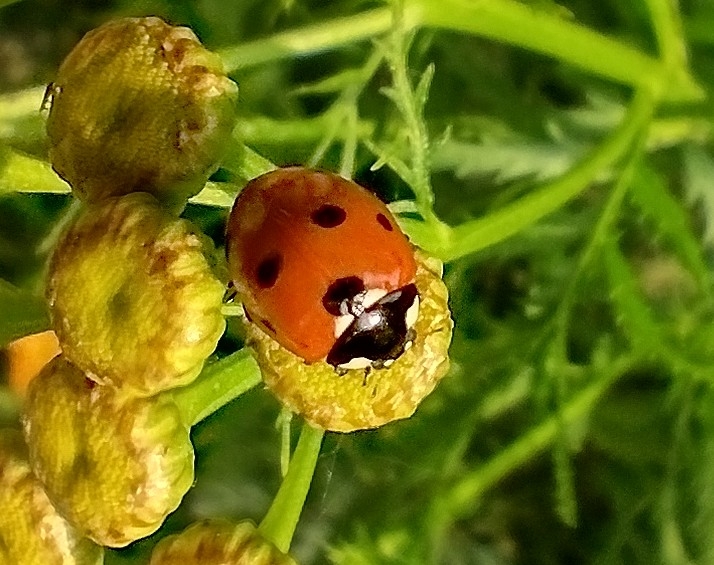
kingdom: Animalia
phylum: Arthropoda
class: Insecta
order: Coleoptera
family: Coccinellidae
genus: Coccinella
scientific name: Coccinella septempunctata
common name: Syvplettet mariehøne
